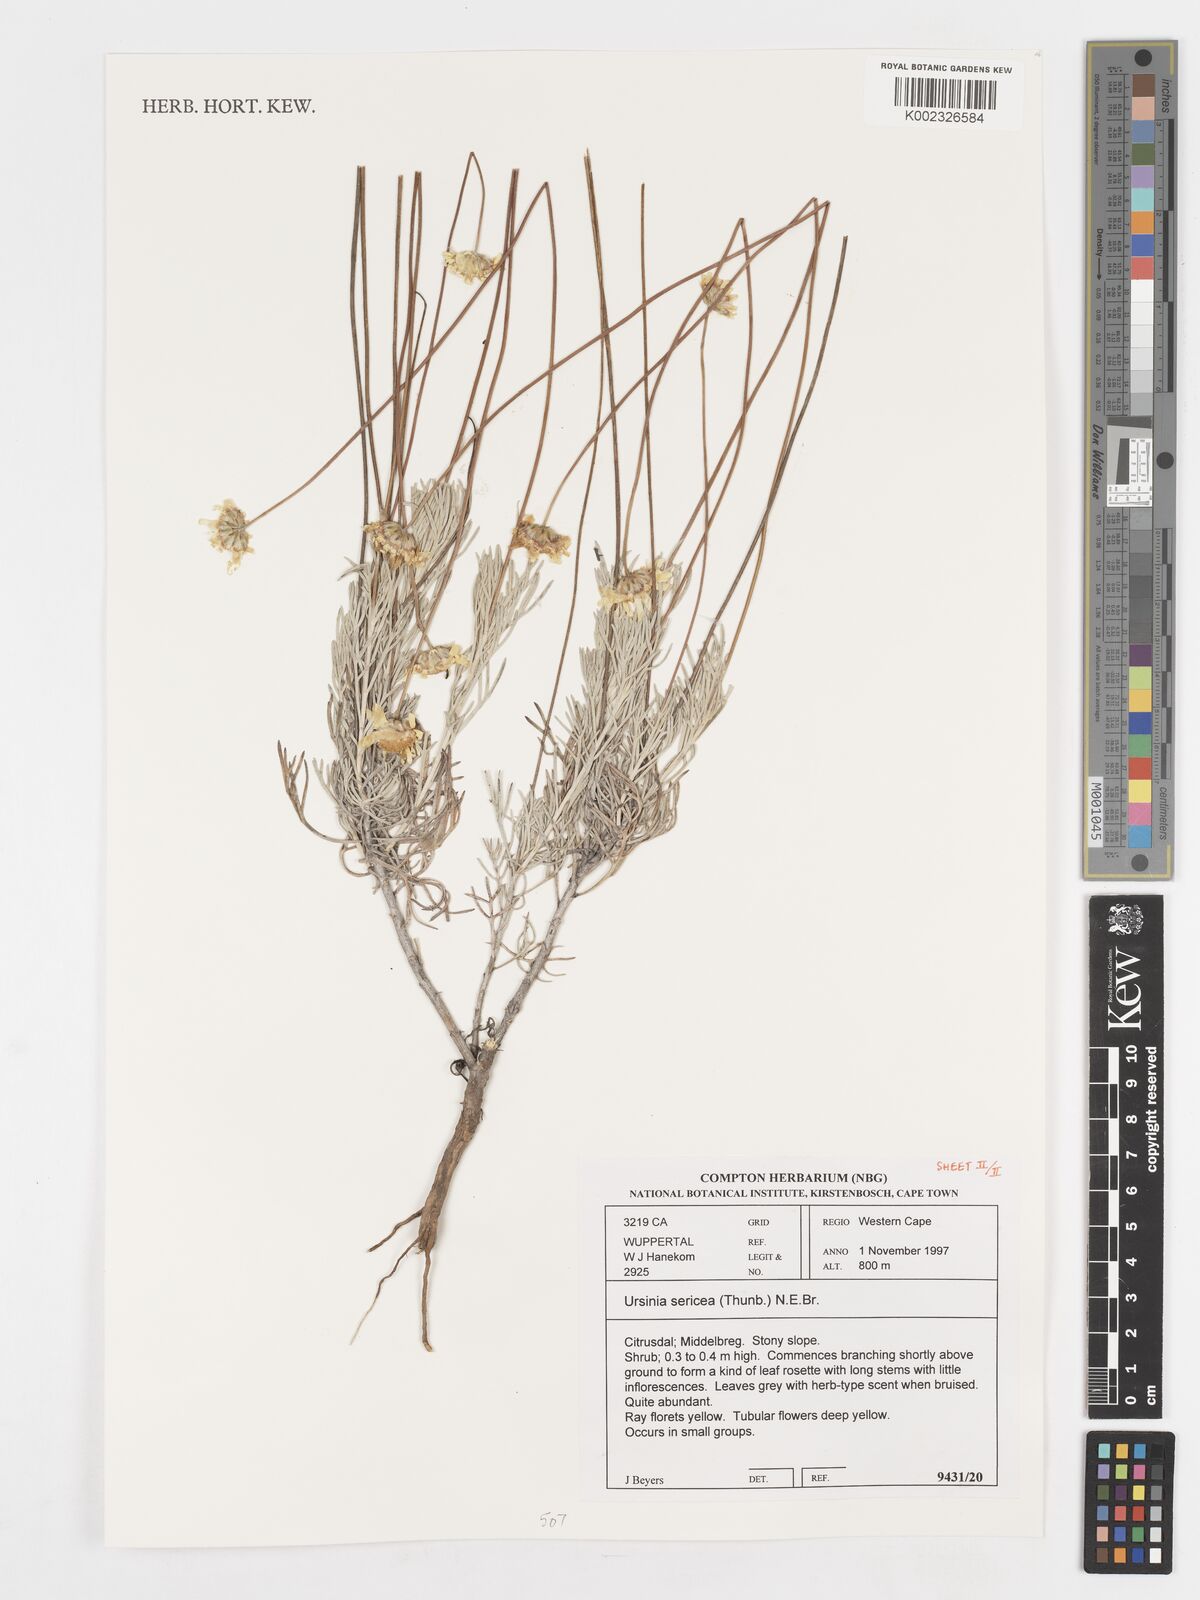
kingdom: Plantae
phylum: Tracheophyta
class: Magnoliopsida
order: Asterales
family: Asteraceae
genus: Ursinia
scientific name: Ursinia sericea
